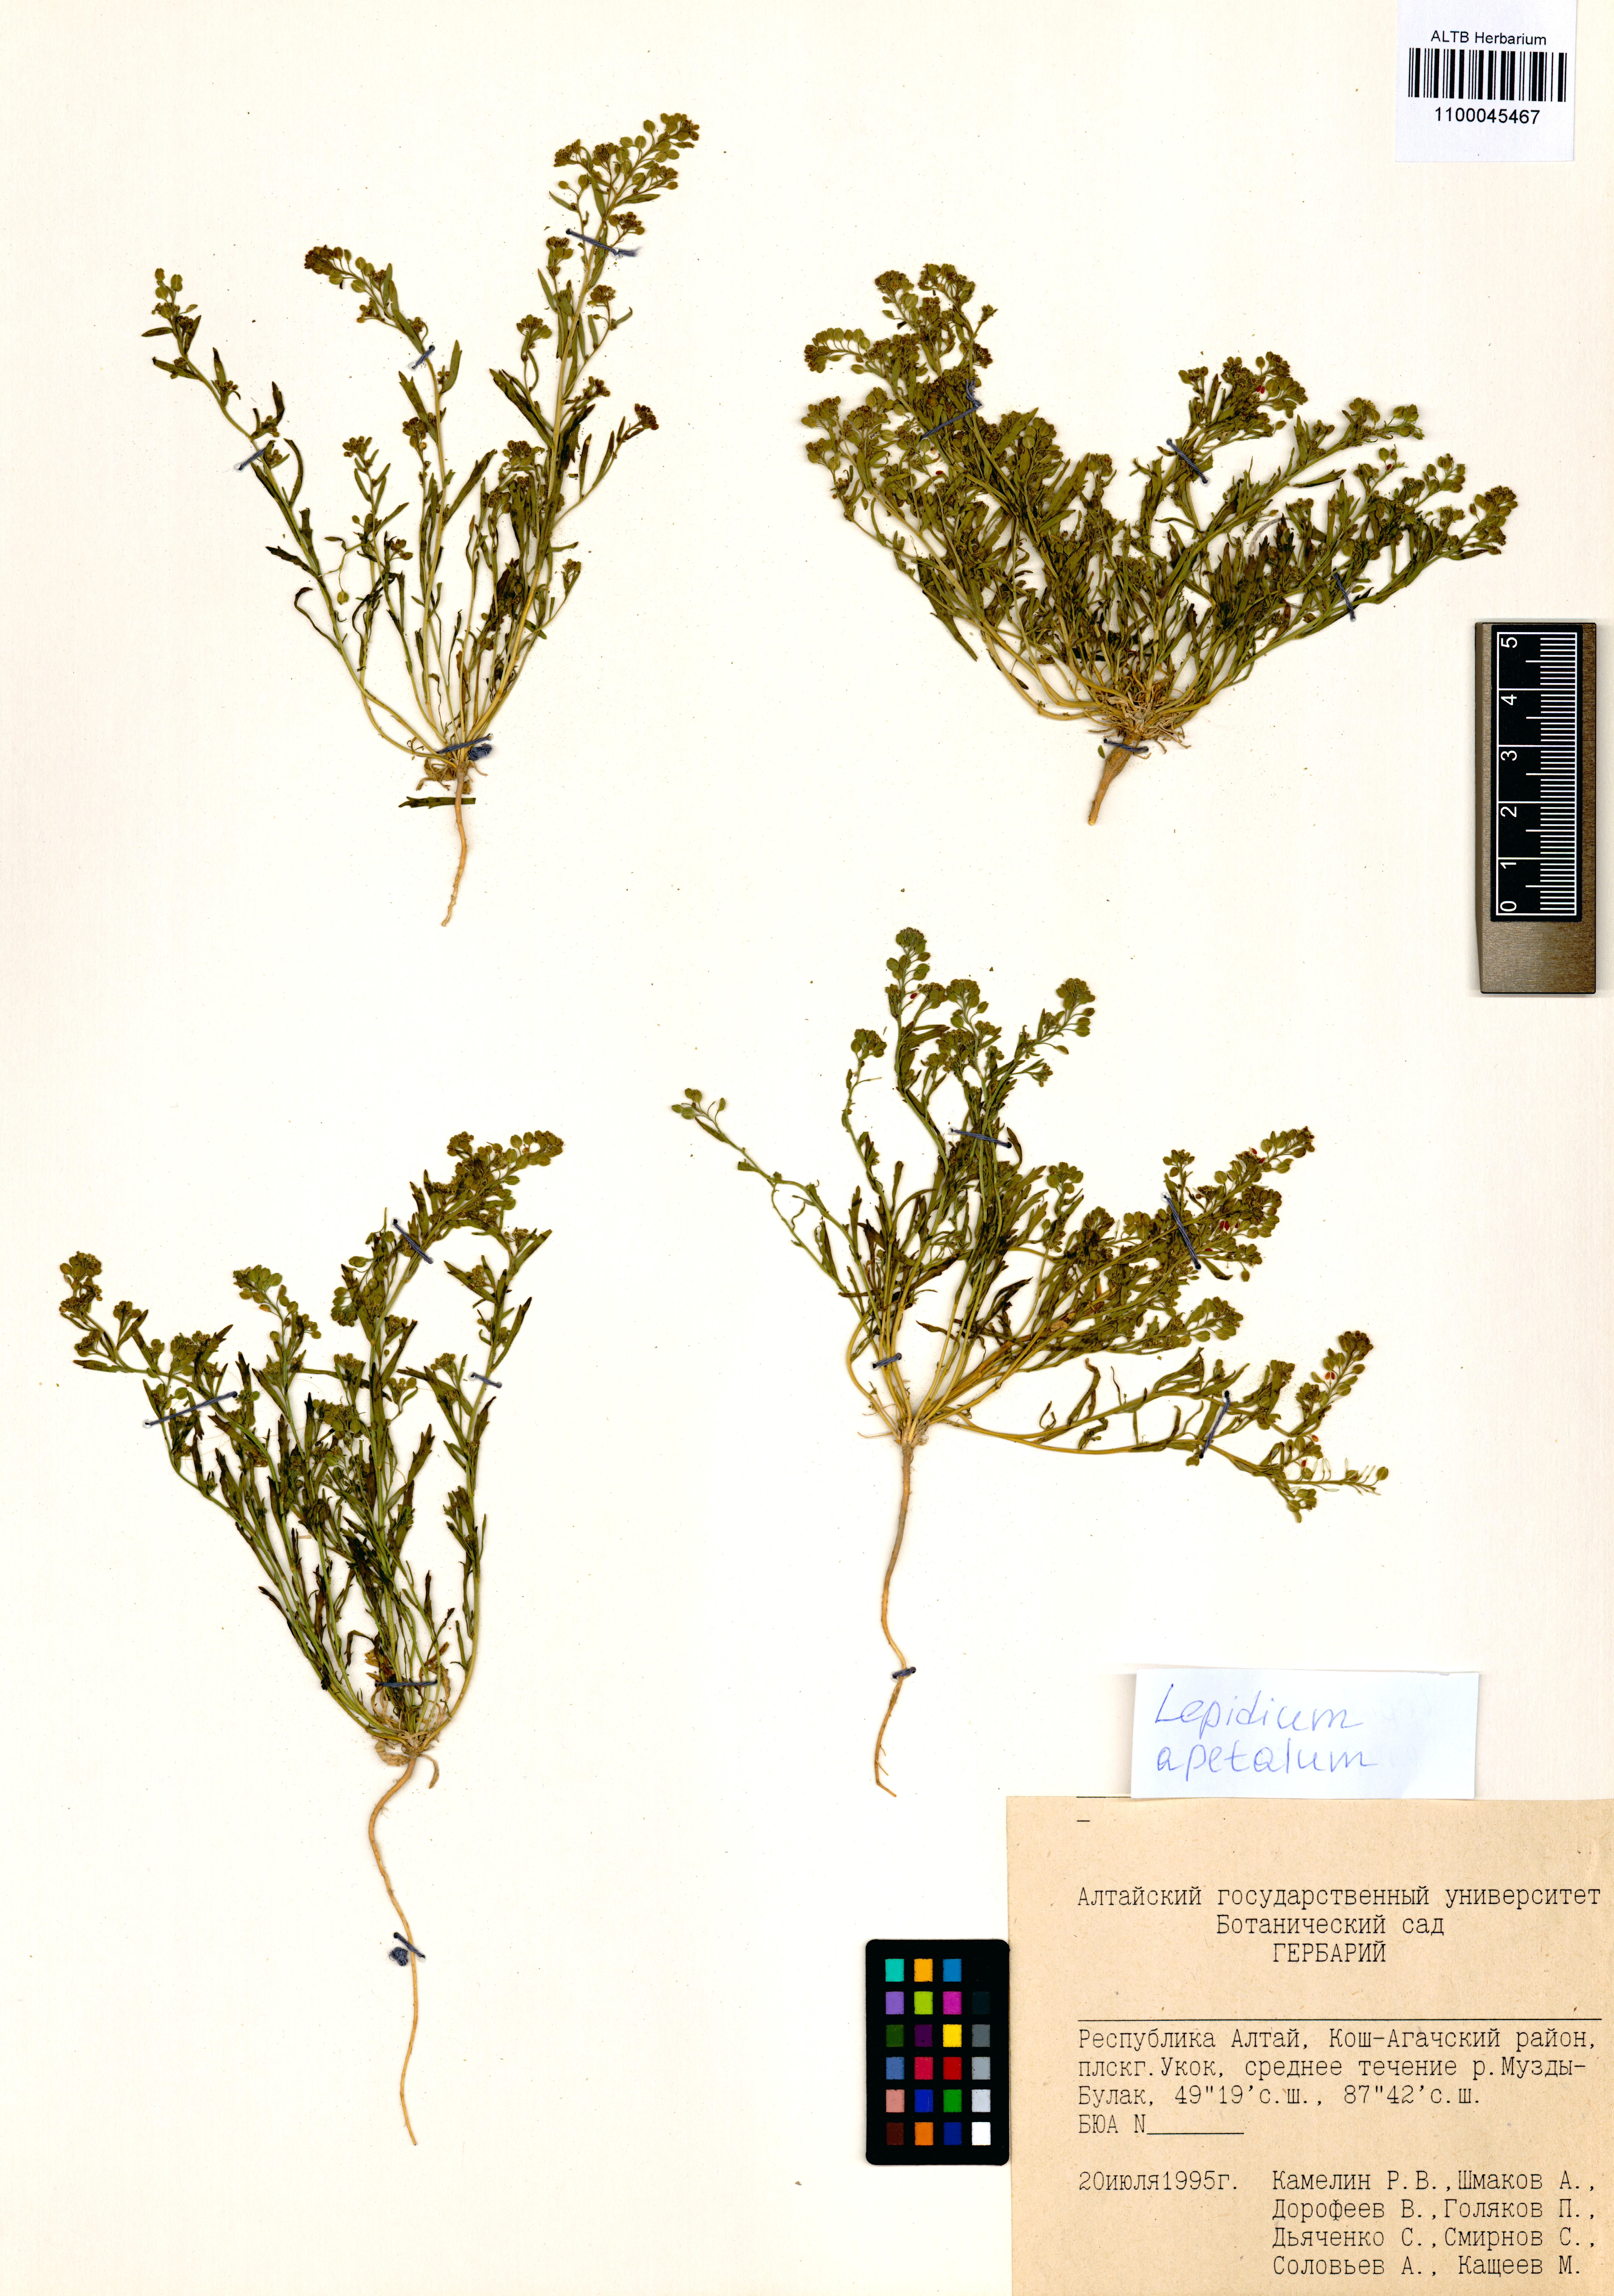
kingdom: Plantae
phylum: Tracheophyta
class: Magnoliopsida
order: Brassicales
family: Brassicaceae
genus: Lepidium
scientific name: Lepidium apetalum
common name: Pepperweed
